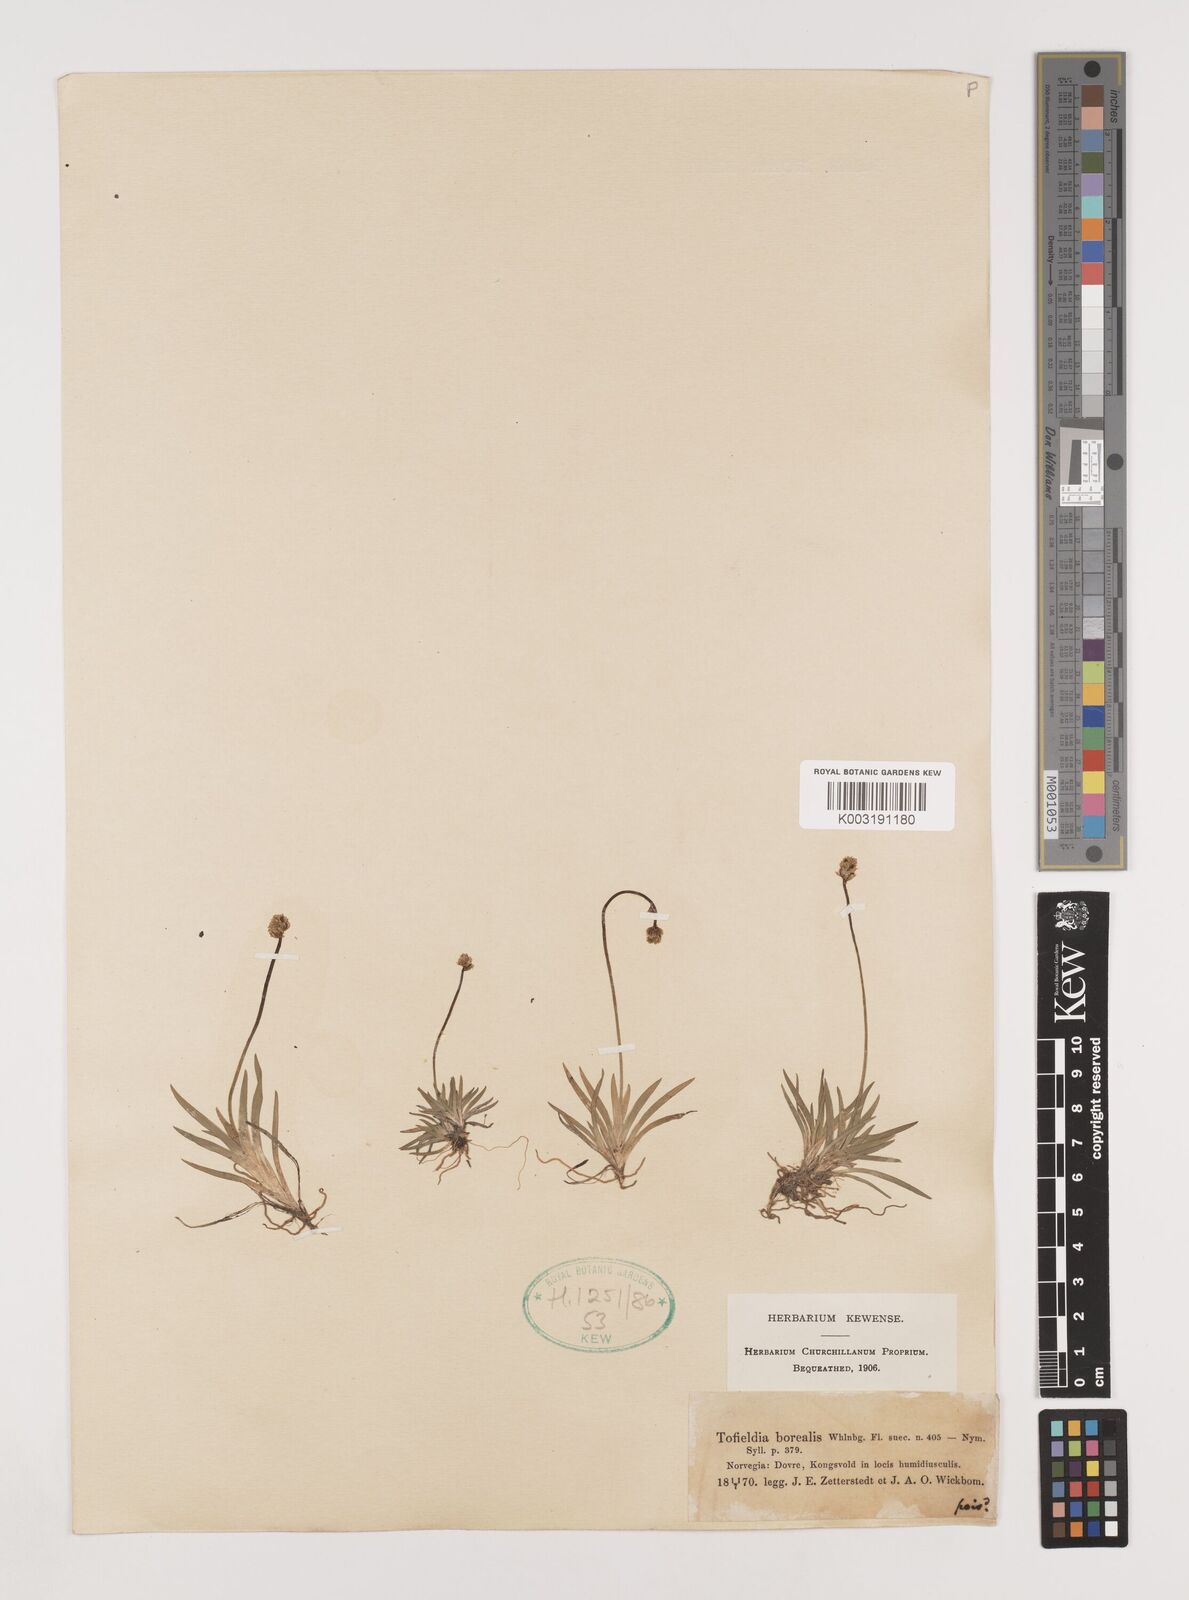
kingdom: Plantae
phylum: Tracheophyta
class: Liliopsida
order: Alismatales
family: Tofieldiaceae
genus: Tofieldia
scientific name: Tofieldia pusilla
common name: Scottish false asphodel
